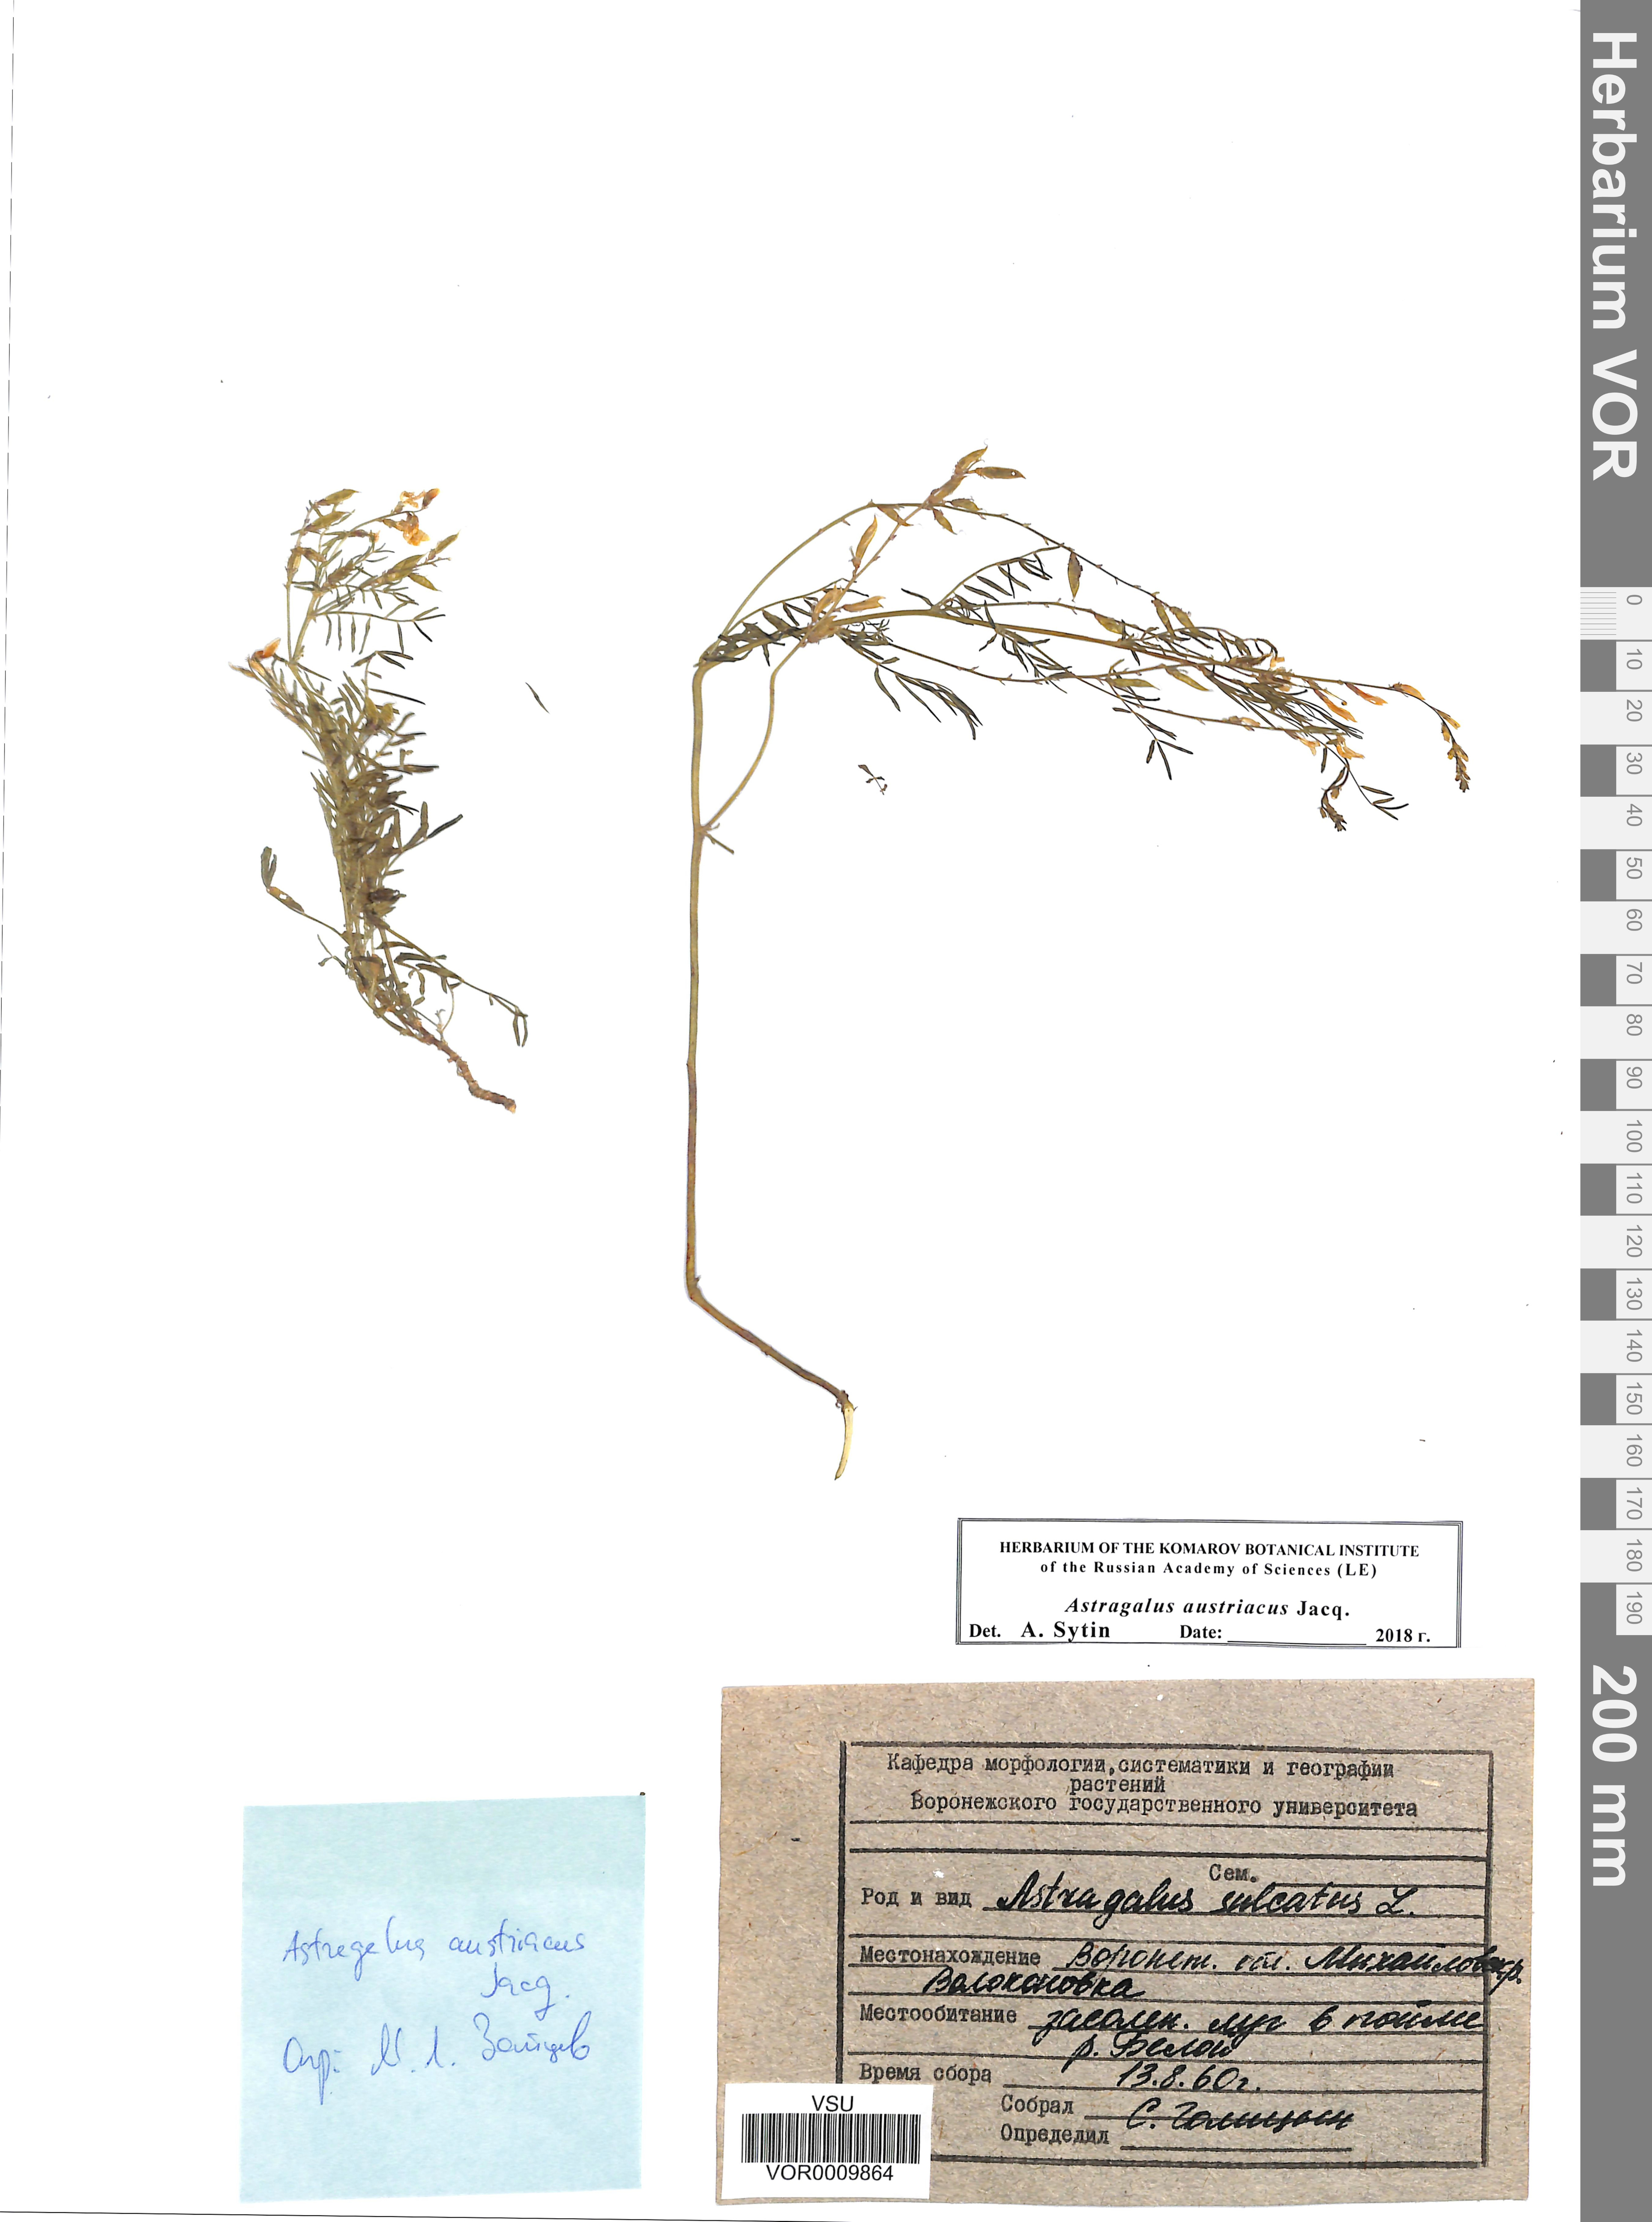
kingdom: Plantae
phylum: Tracheophyta
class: Magnoliopsida
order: Fabales
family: Fabaceae
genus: Astragalus
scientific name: Astragalus austriacus
